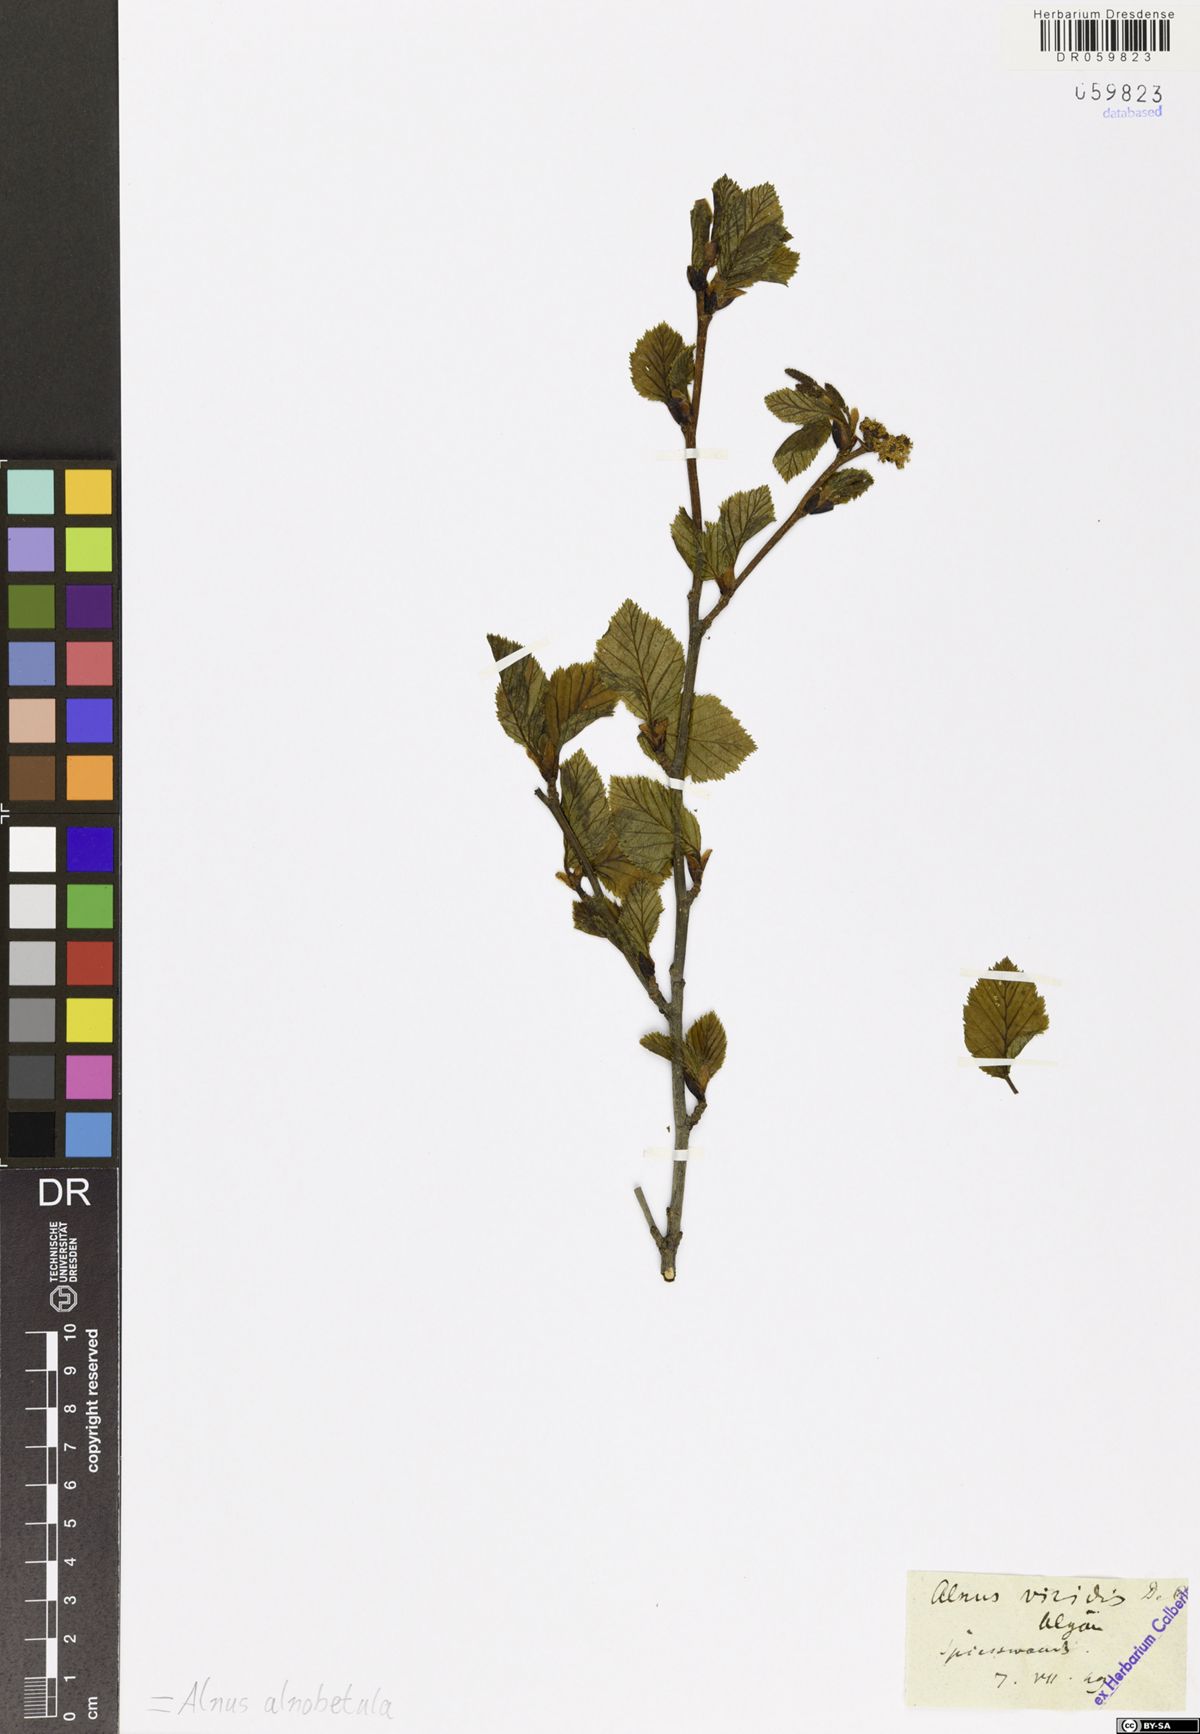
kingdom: Plantae
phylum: Tracheophyta
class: Magnoliopsida
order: Fagales
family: Betulaceae
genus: Alnus
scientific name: Alnus alnobetula
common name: Green alder
